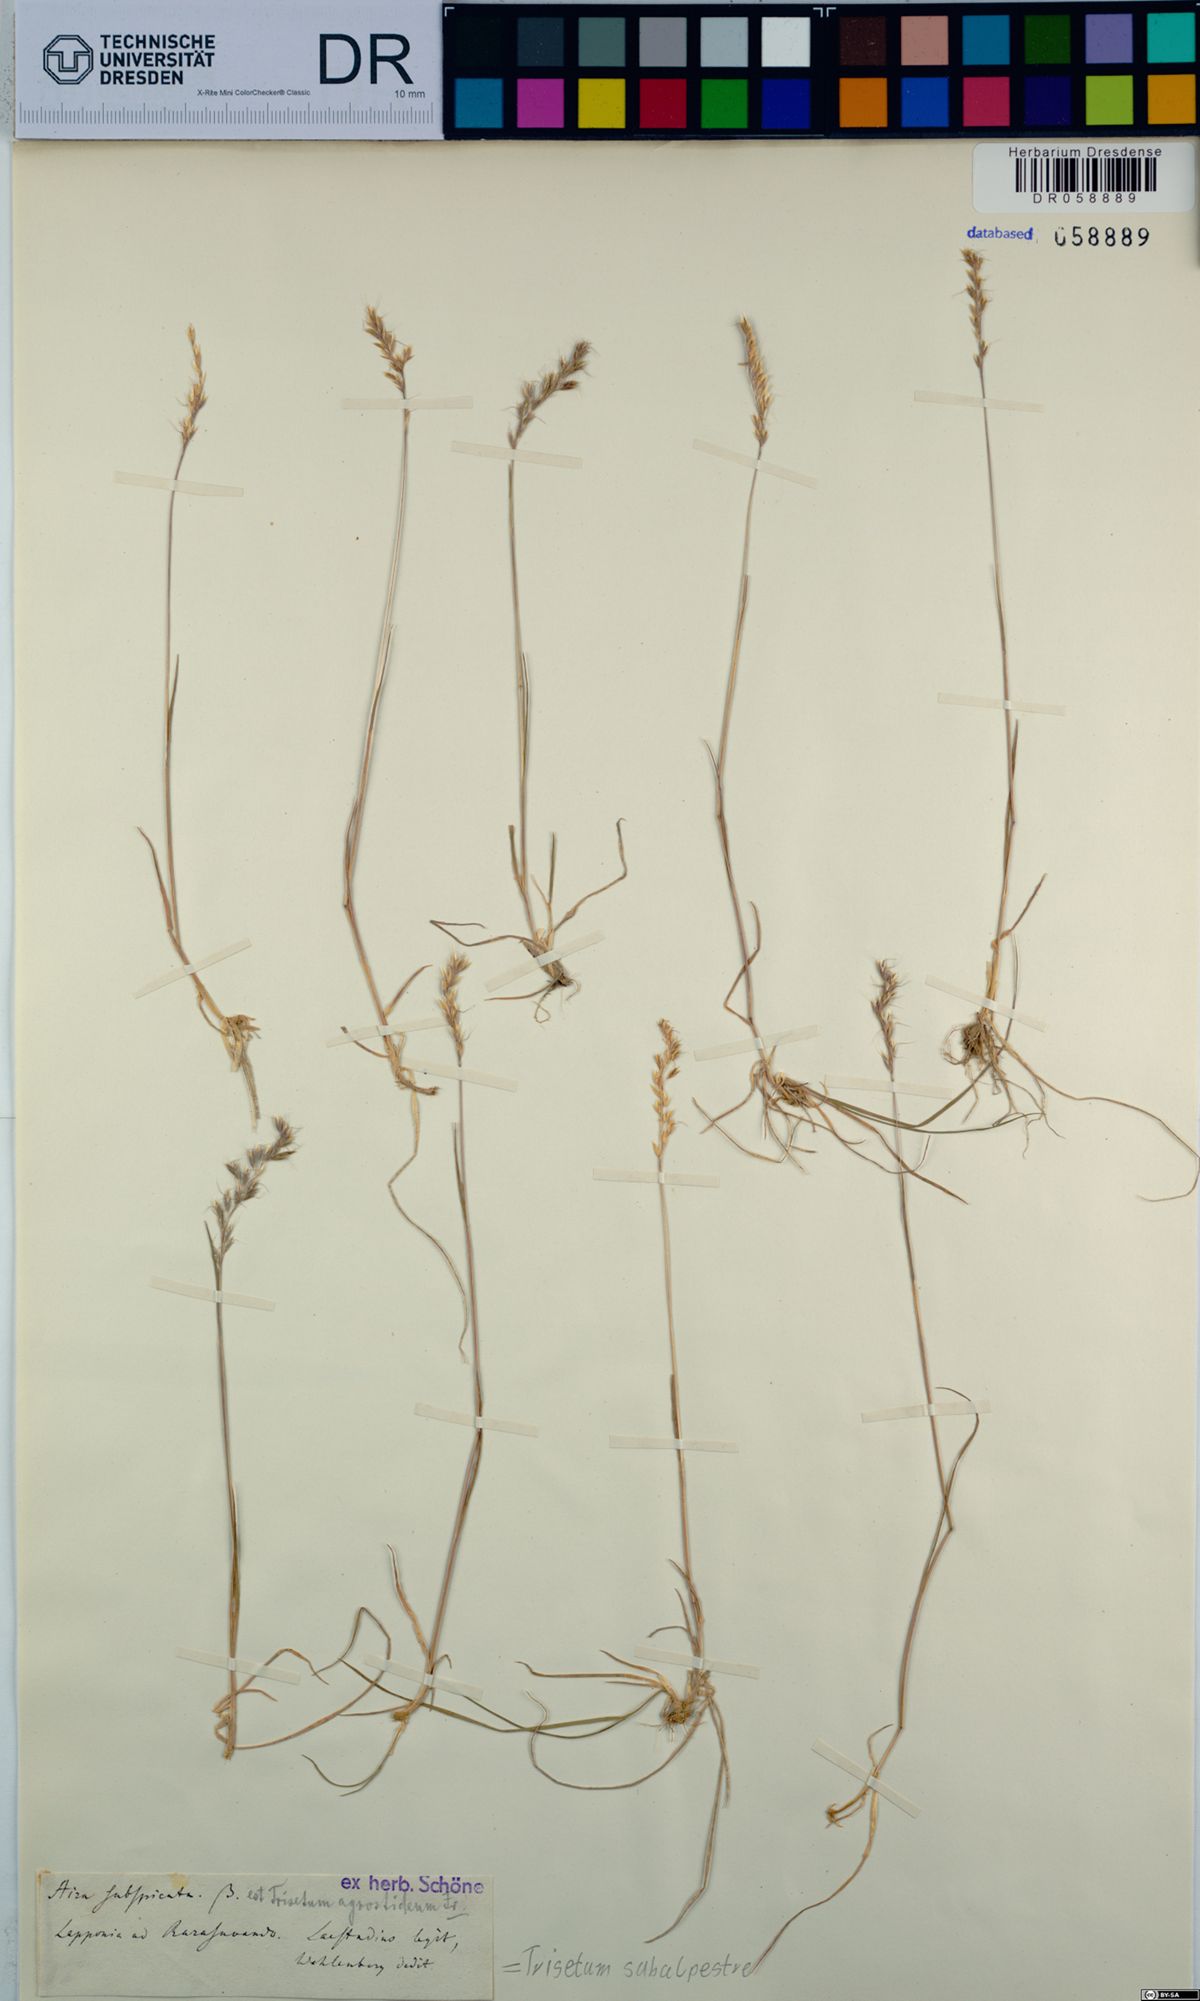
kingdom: Plantae
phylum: Tracheophyta
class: Liliopsida
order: Poales
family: Poaceae
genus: Koeleria
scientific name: Koeleria subalpestris
